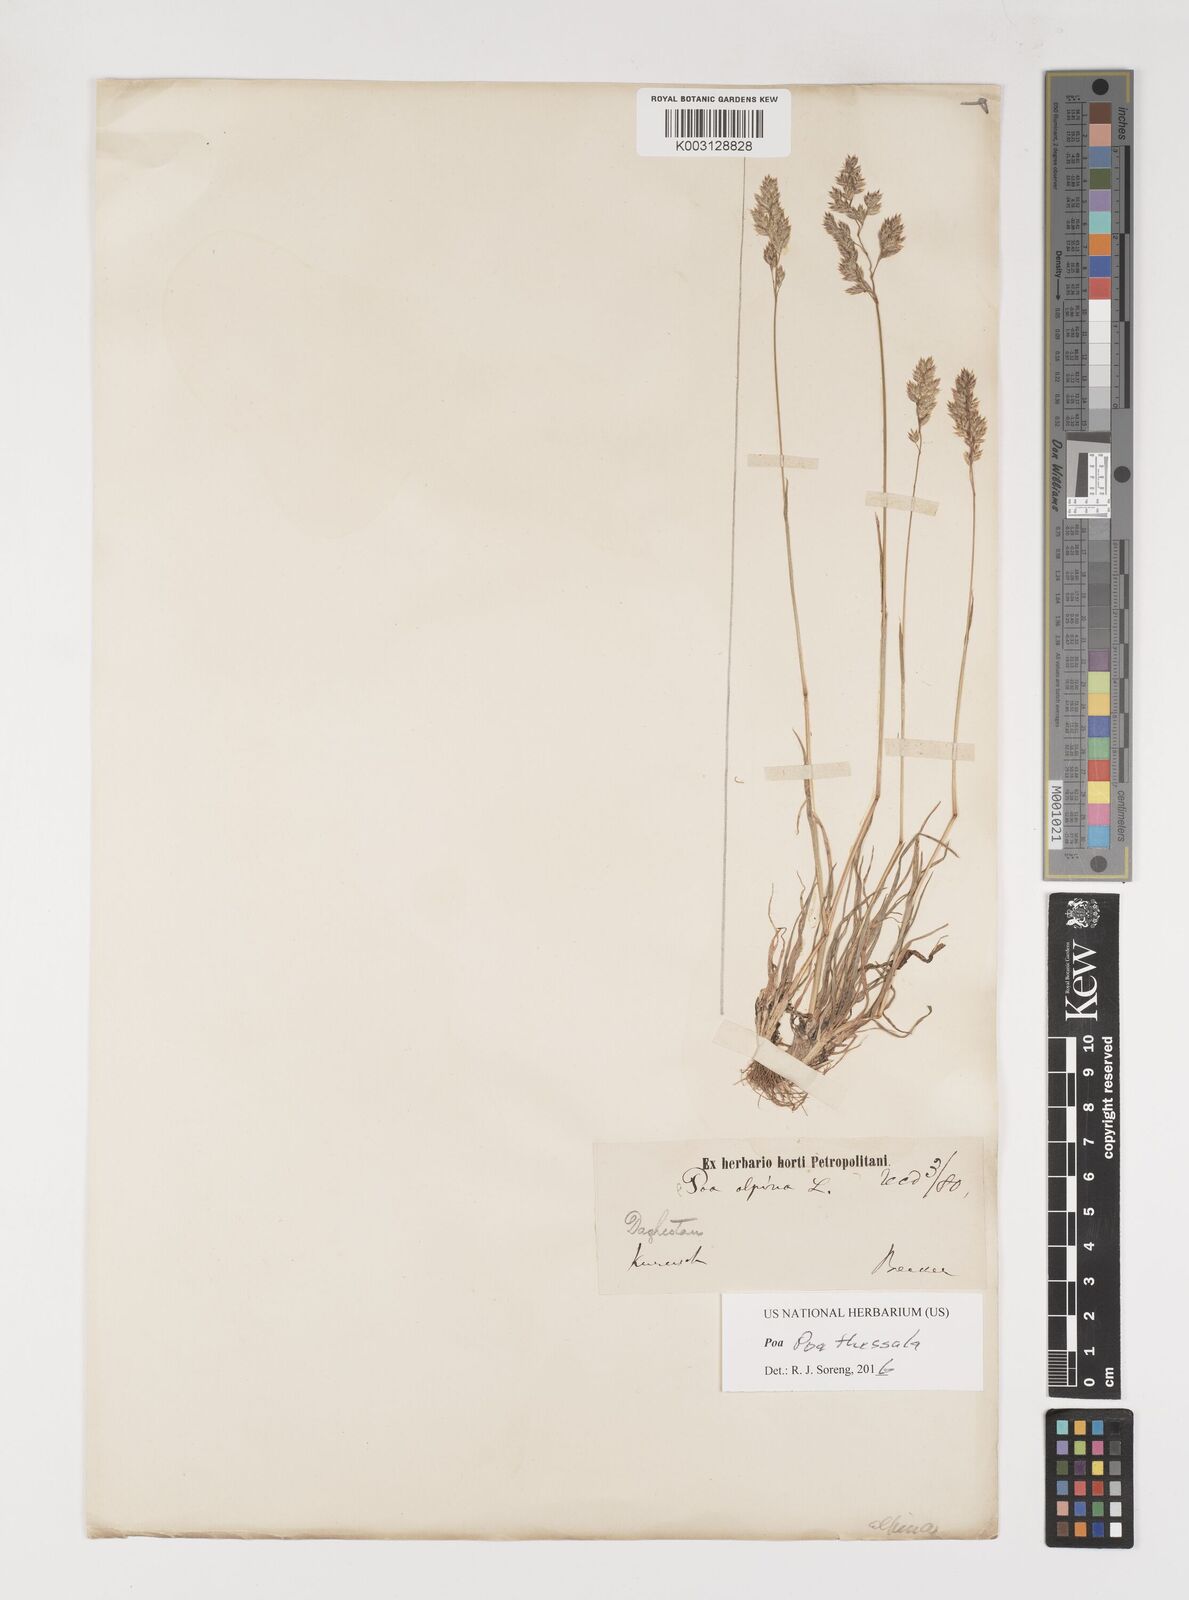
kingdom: Plantae
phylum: Tracheophyta
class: Liliopsida
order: Poales
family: Poaceae
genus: Poa
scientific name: Poa thessala
